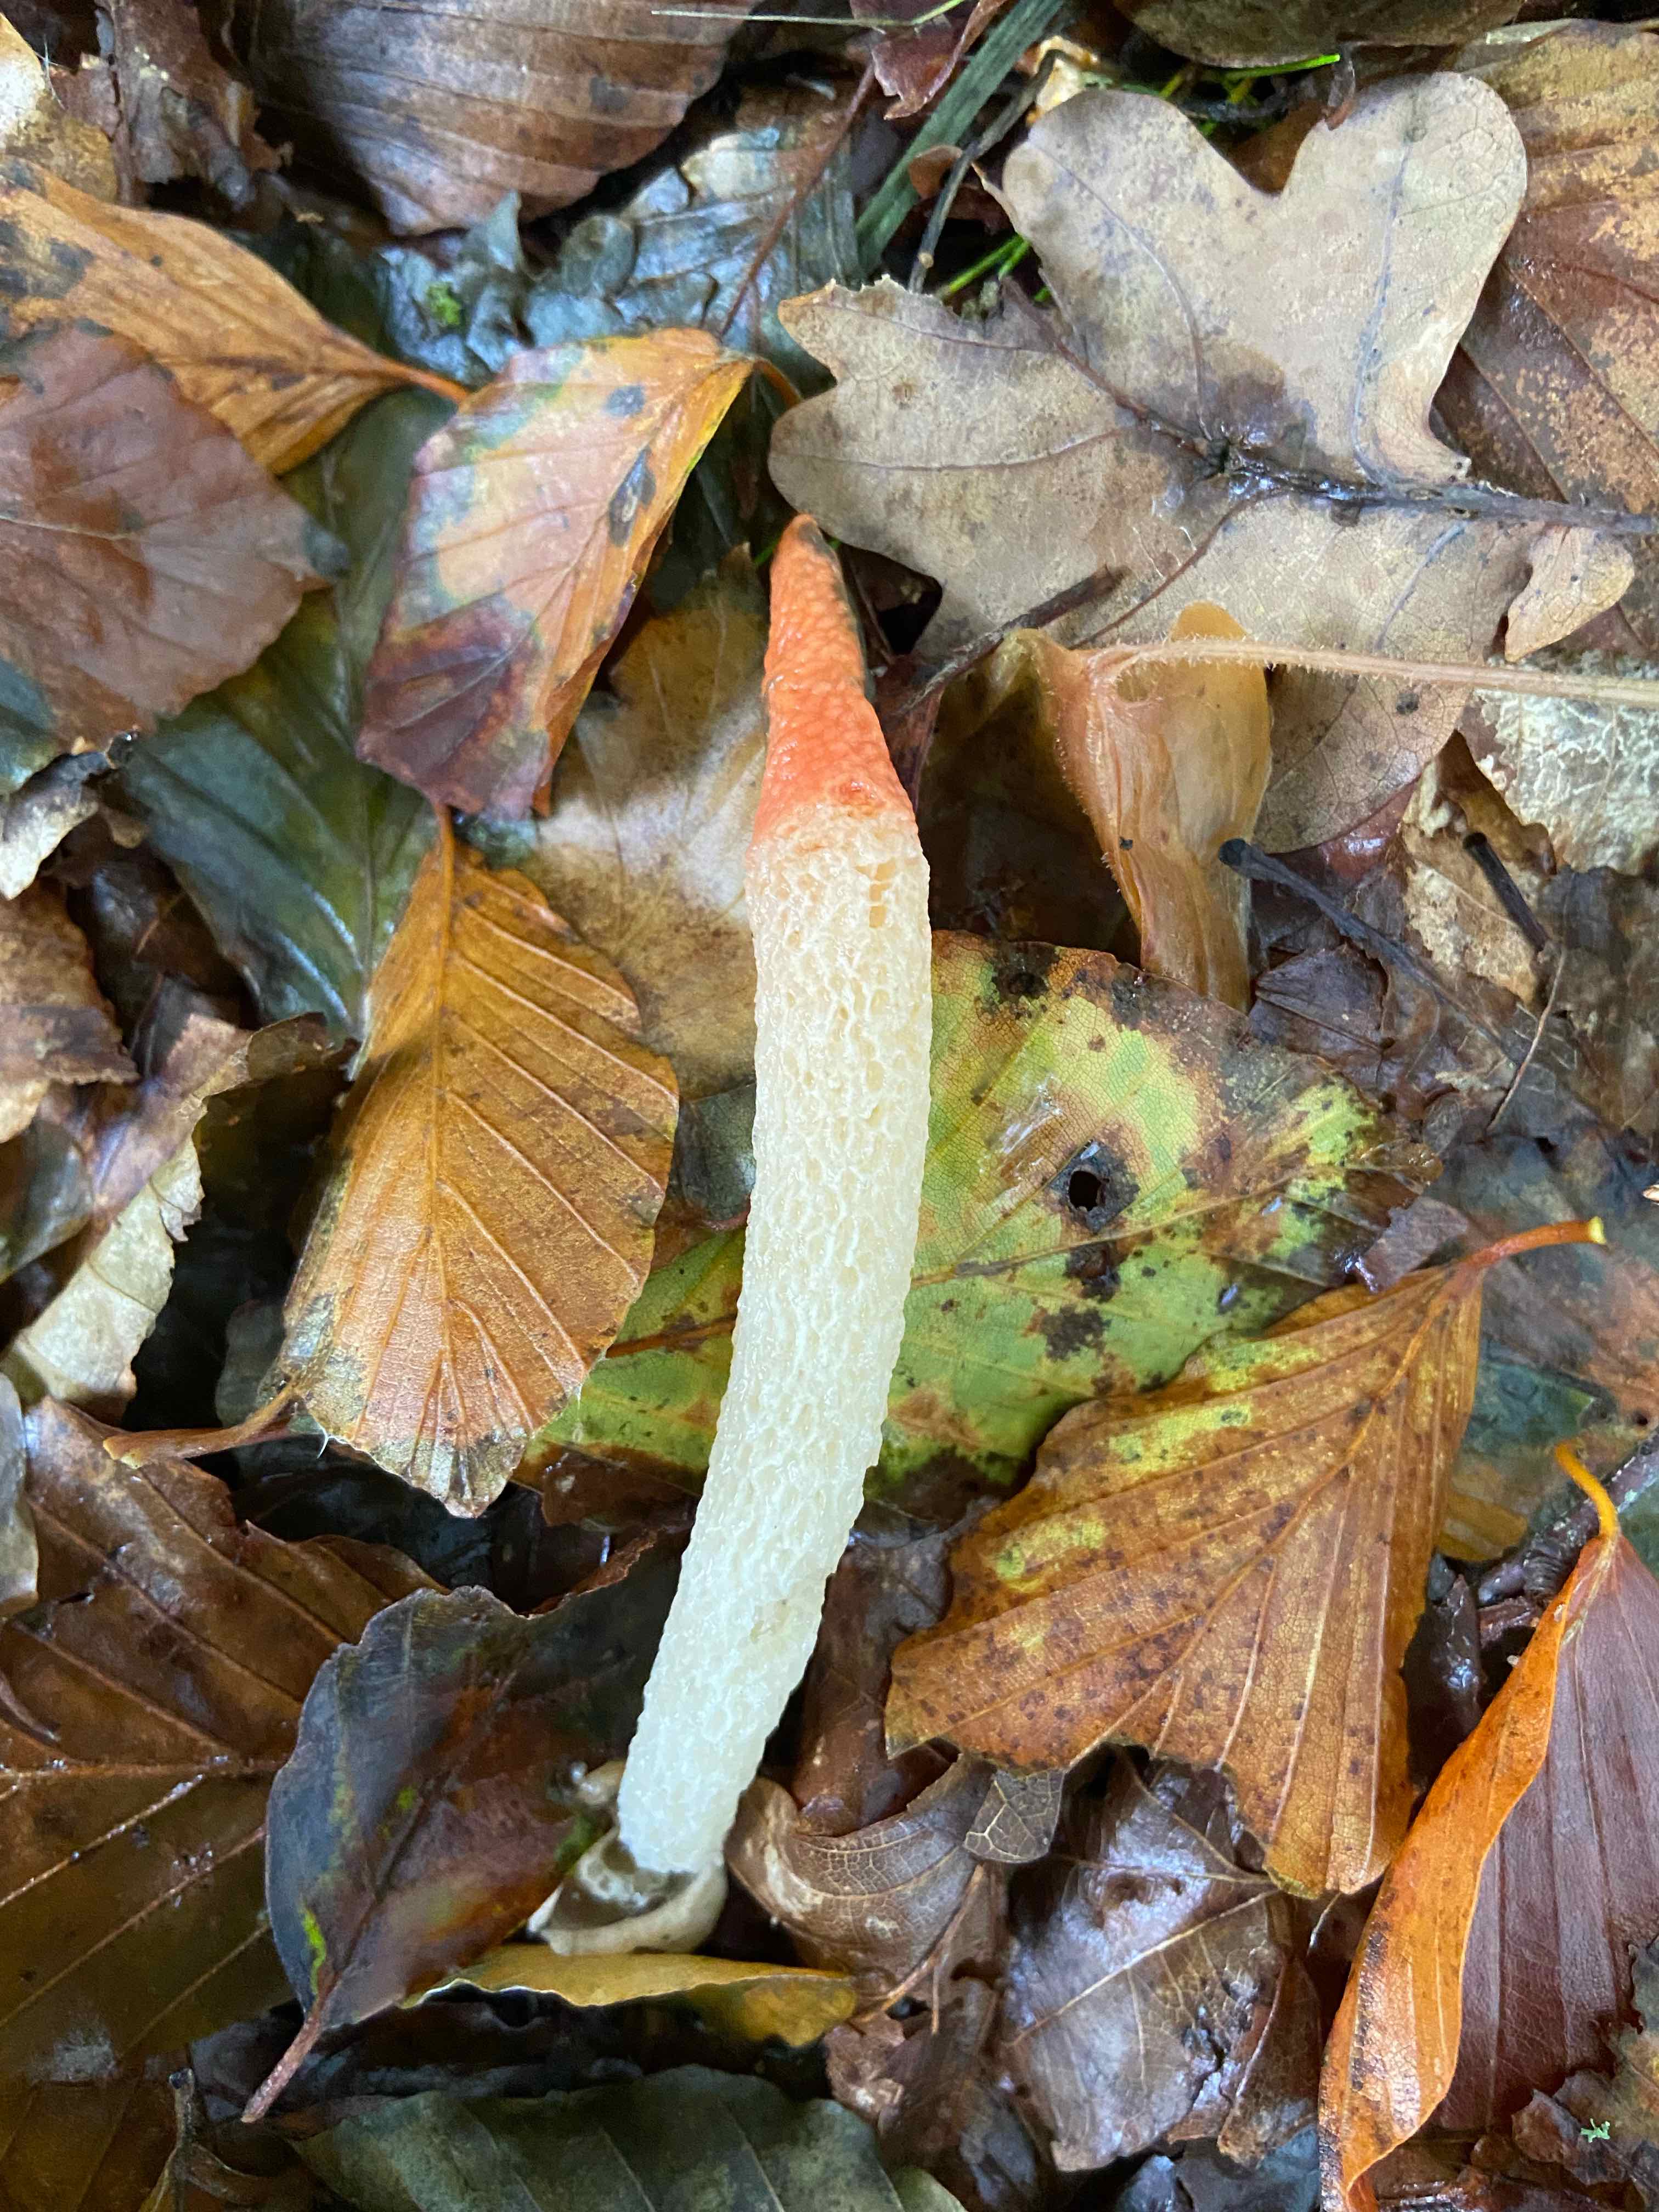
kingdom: Fungi
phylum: Basidiomycota
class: Agaricomycetes
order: Phallales
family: Phallaceae
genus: Mutinus
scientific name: Mutinus caninus
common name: hunde-stinksvamp
